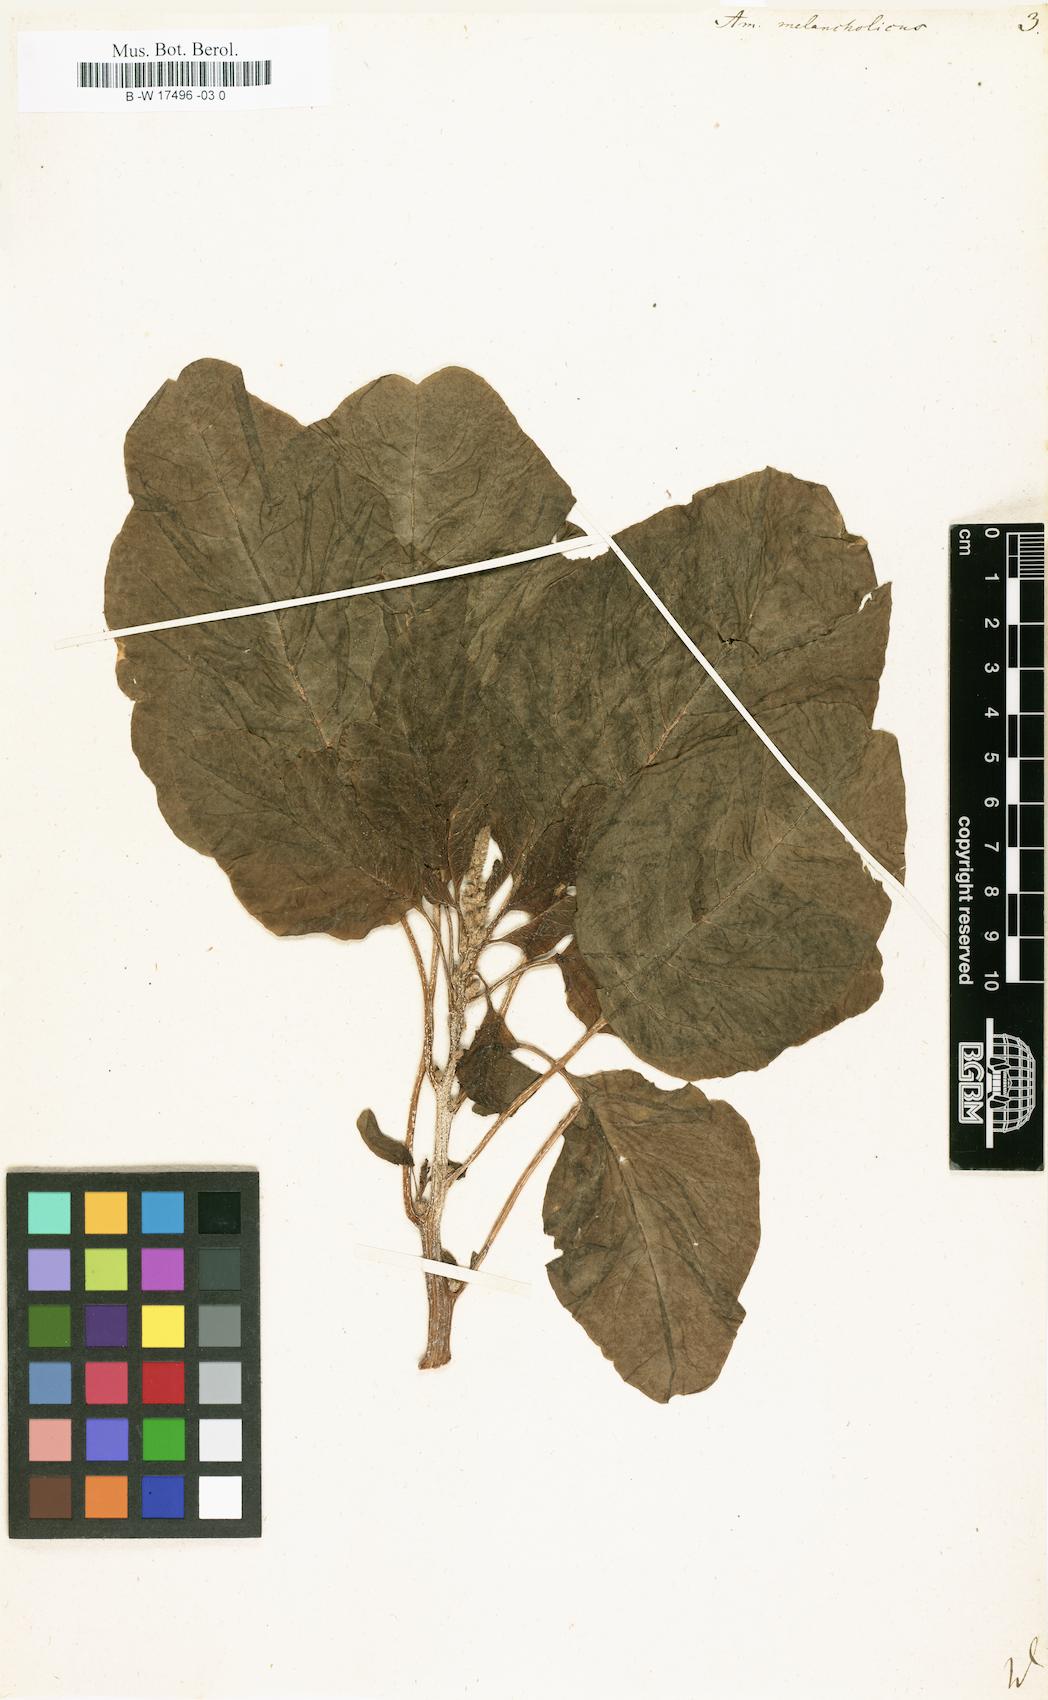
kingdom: Plantae
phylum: Tracheophyta
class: Magnoliopsida
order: Caryophyllales
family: Amaranthaceae
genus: Amaranthus
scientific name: Amaranthus tricolor
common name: Joseph's-coat
